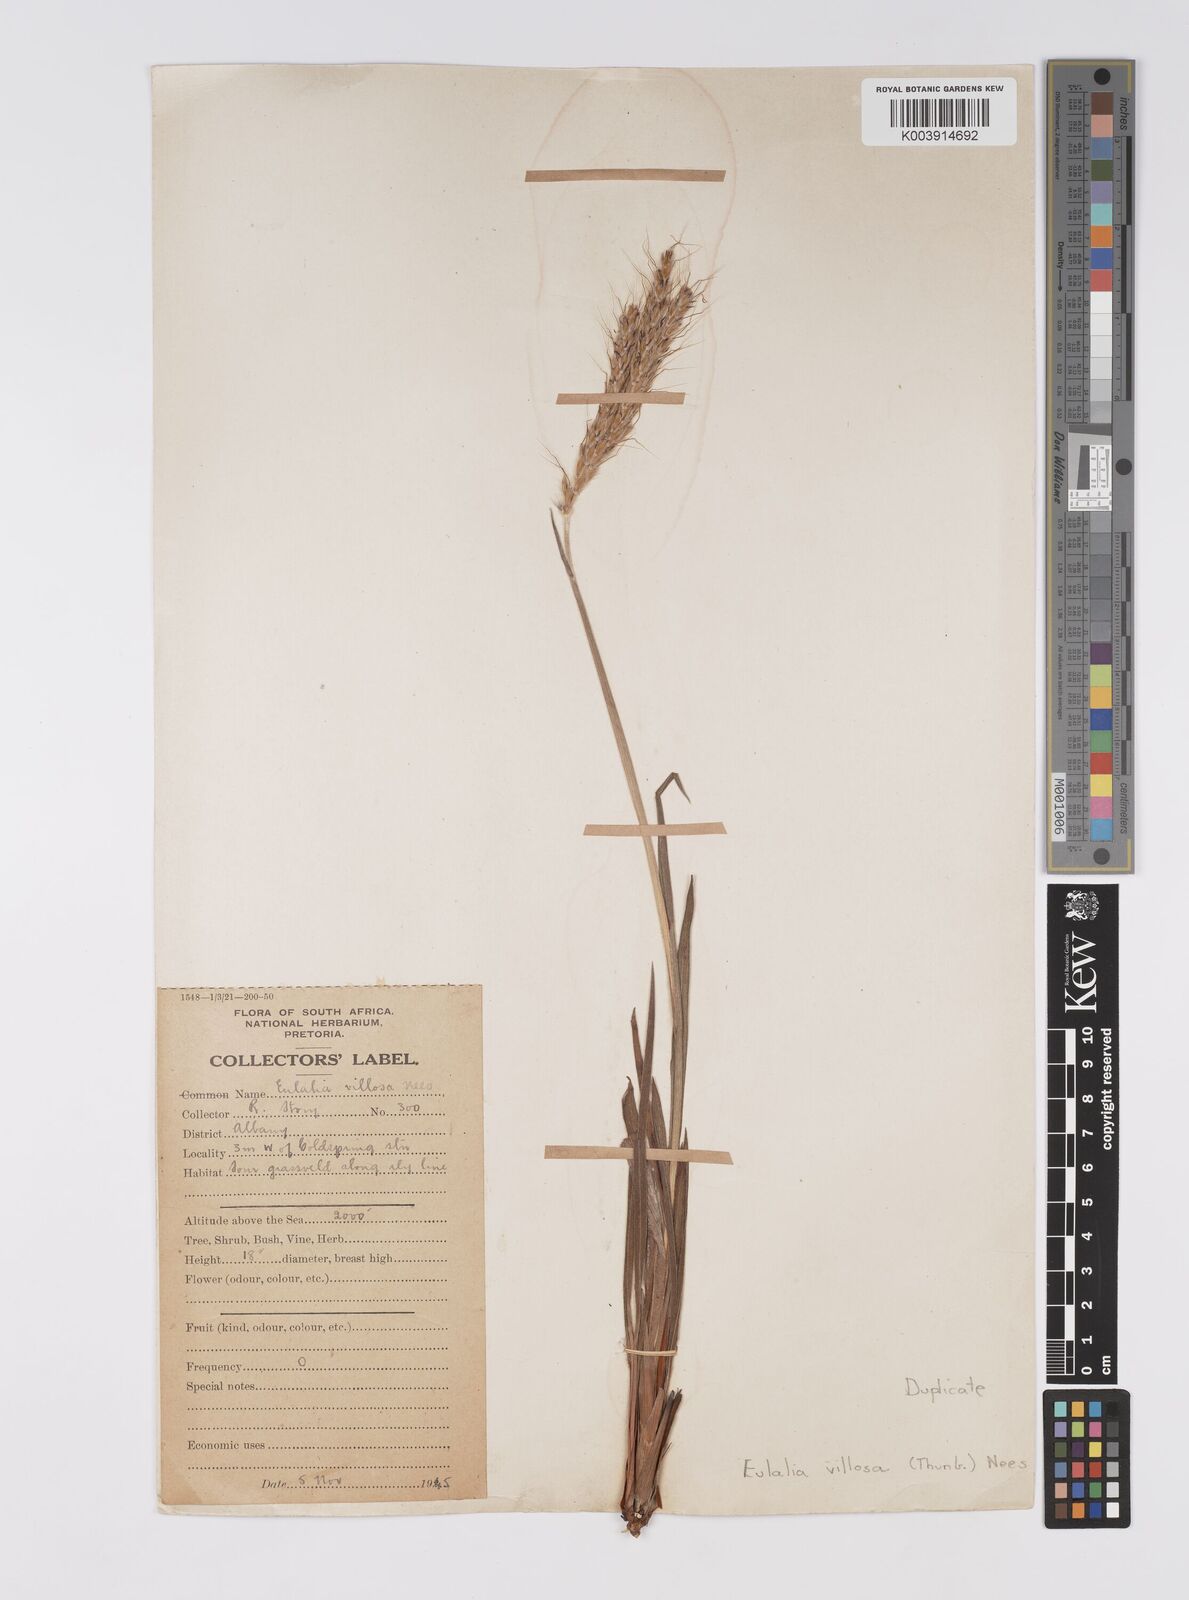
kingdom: Plantae
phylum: Tracheophyta
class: Liliopsida
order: Poales
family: Poaceae
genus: Eulalia
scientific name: Eulalia villosa
